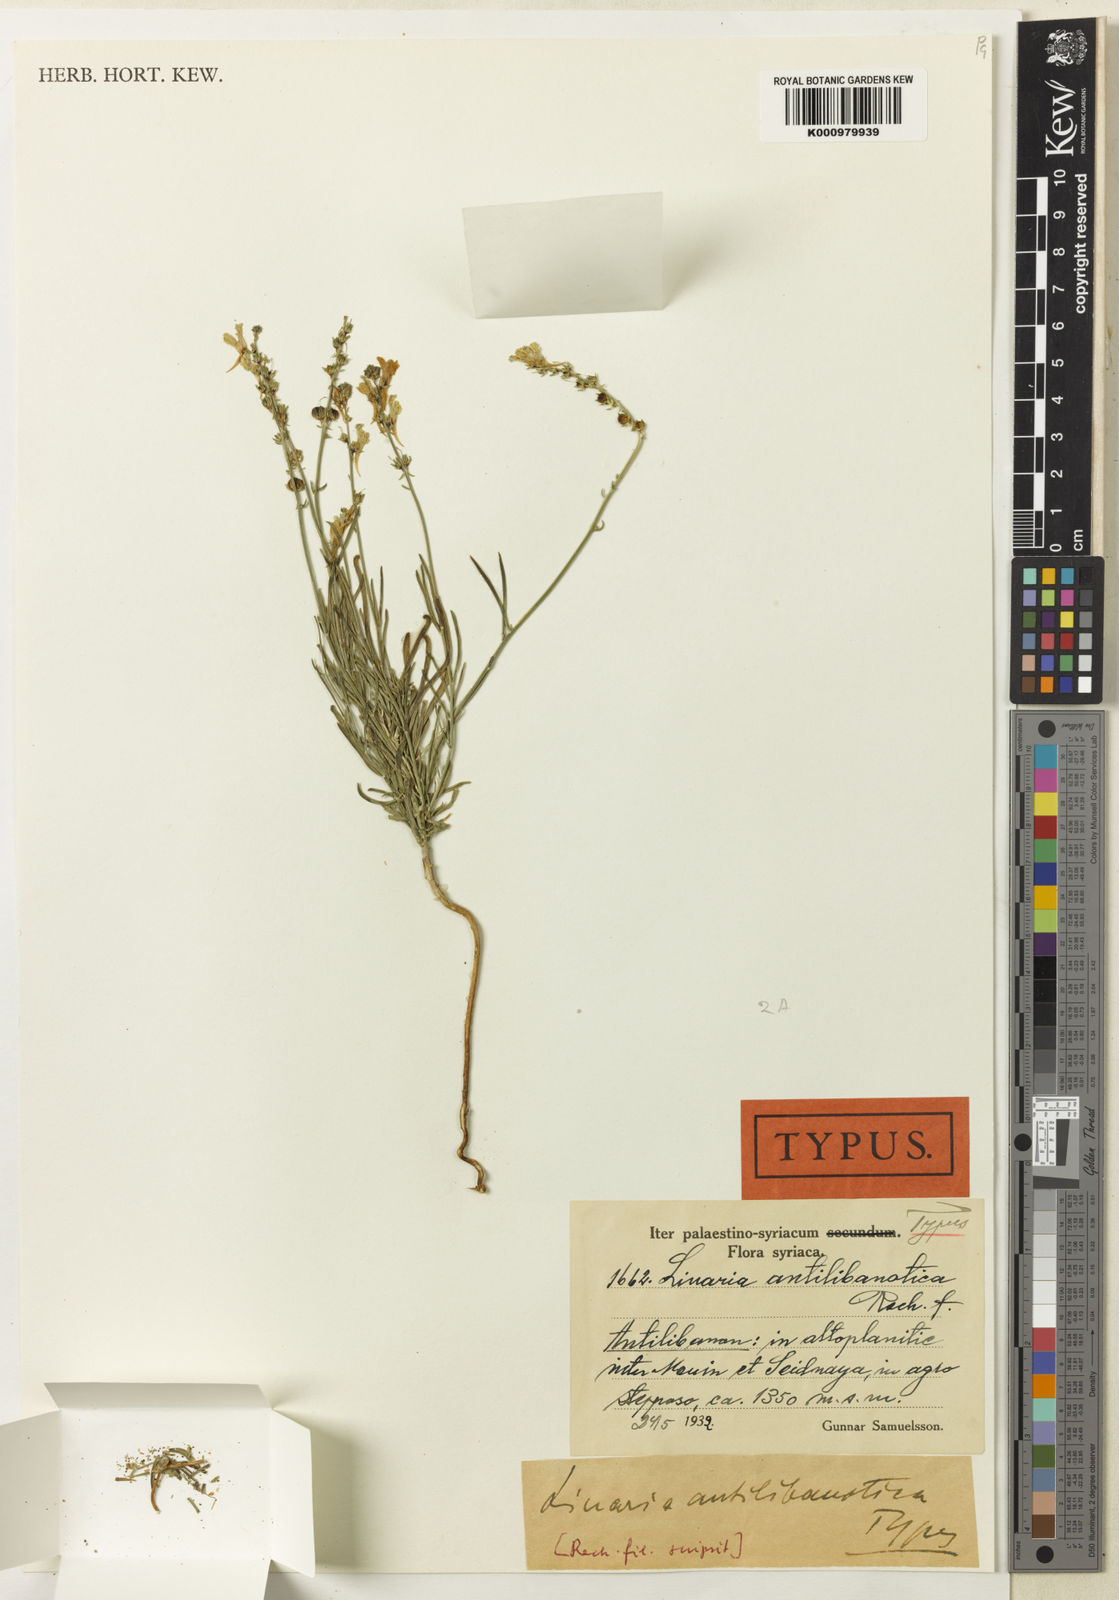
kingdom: Plantae
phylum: Tracheophyta
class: Magnoliopsida
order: Lamiales
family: Plantaginaceae
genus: Linaria
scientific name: Linaria
